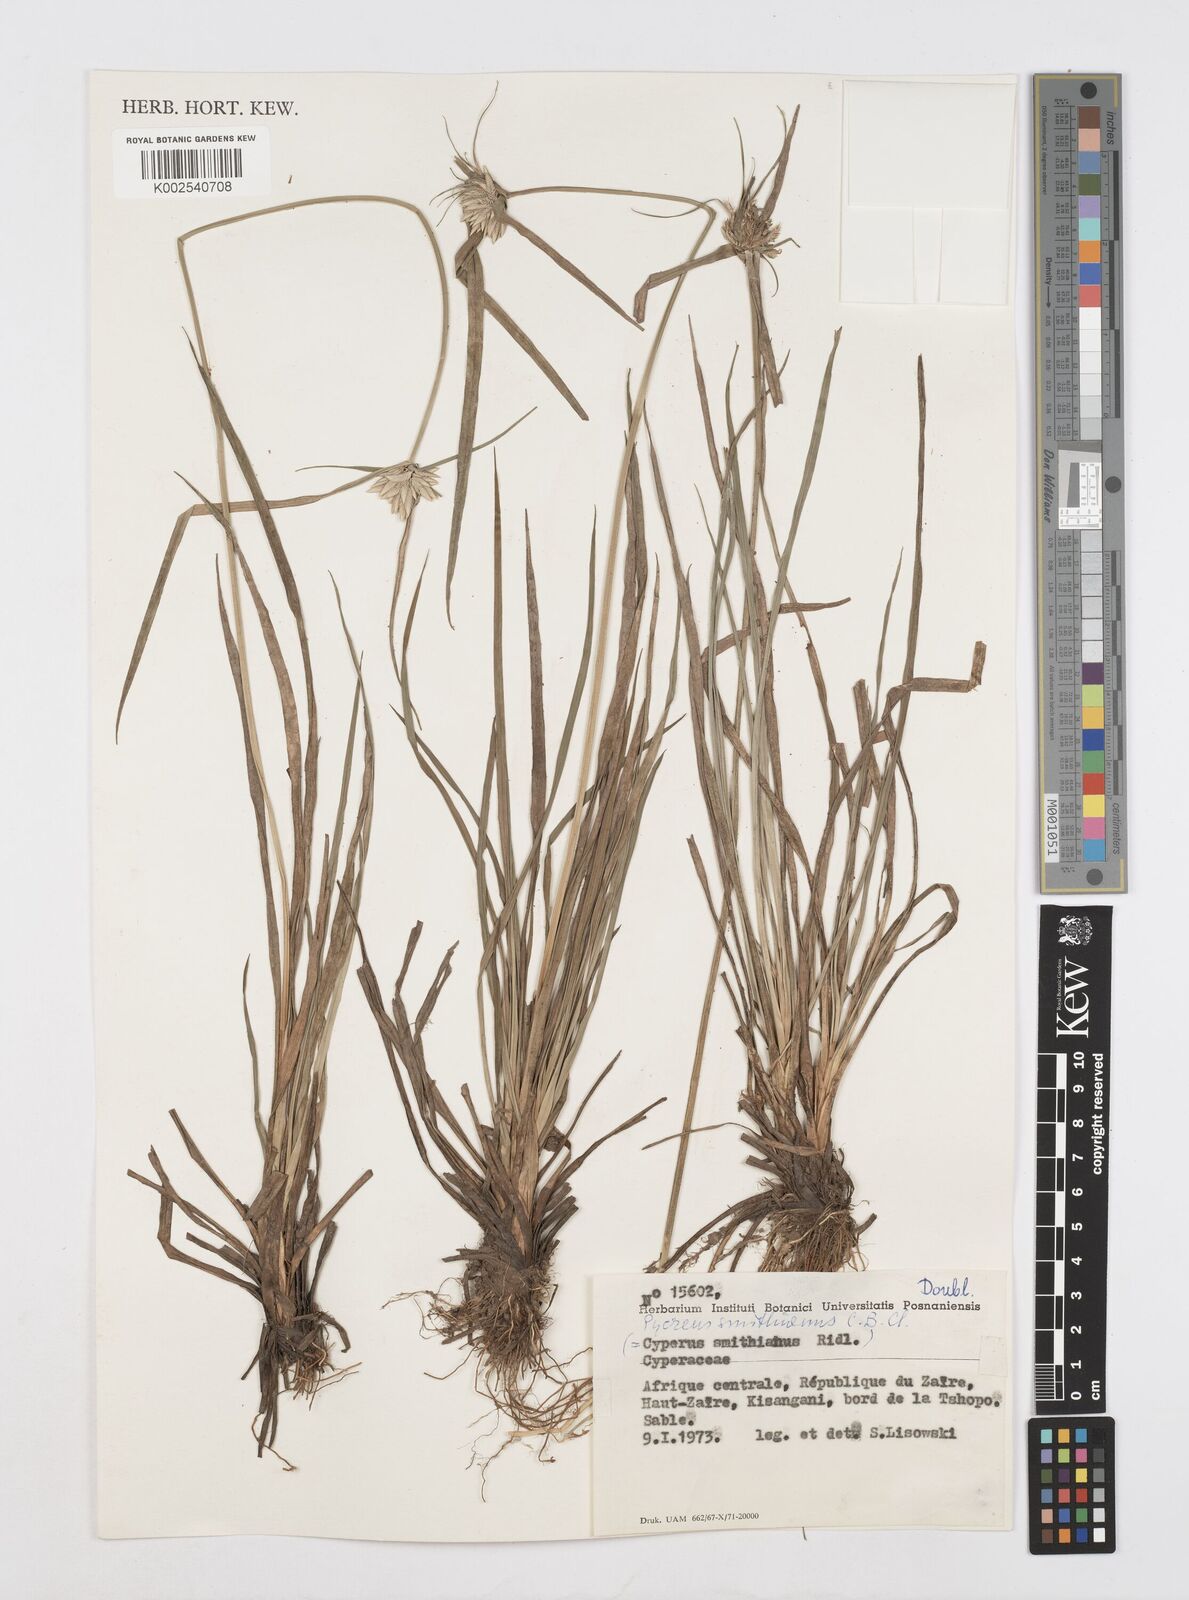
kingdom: Plantae
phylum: Tracheophyta
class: Liliopsida
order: Poales
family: Cyperaceae
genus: Cyperus
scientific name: Cyperus smithianus
